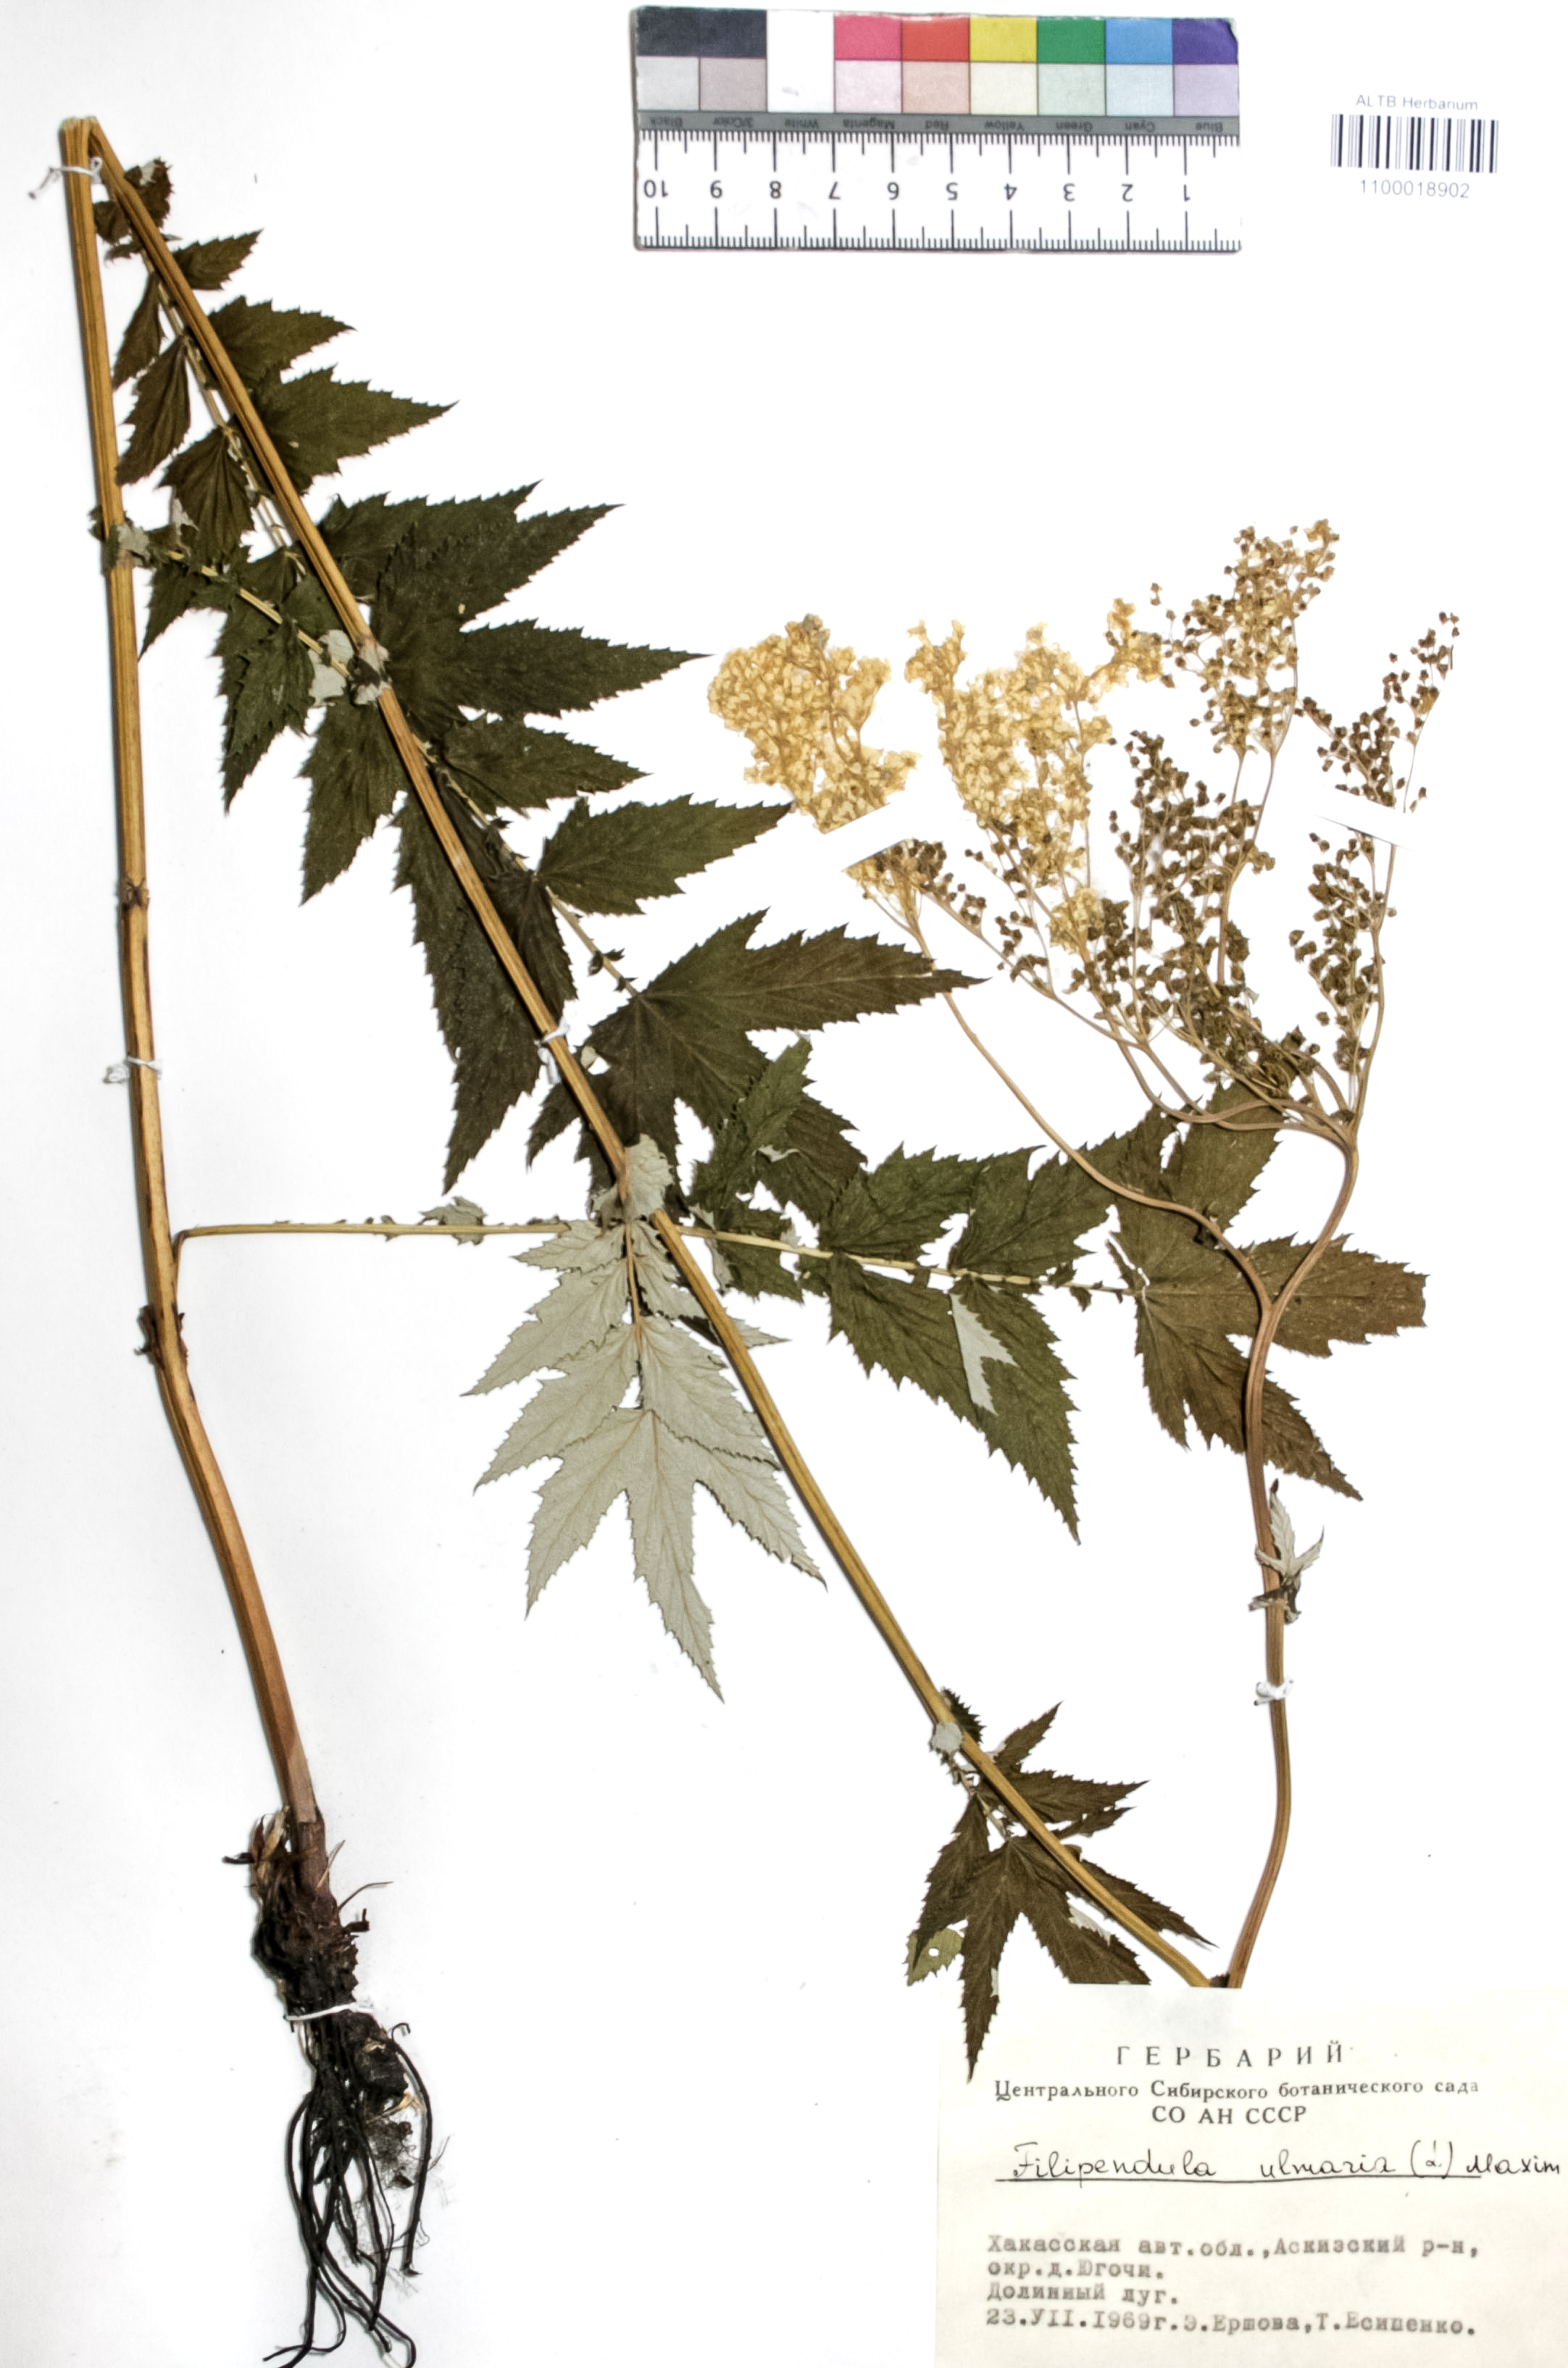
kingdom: Plantae
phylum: Tracheophyta
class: Magnoliopsida
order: Rosales
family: Rosaceae
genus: Filipendula
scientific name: Filipendula ulmaria
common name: Meadowsweet
